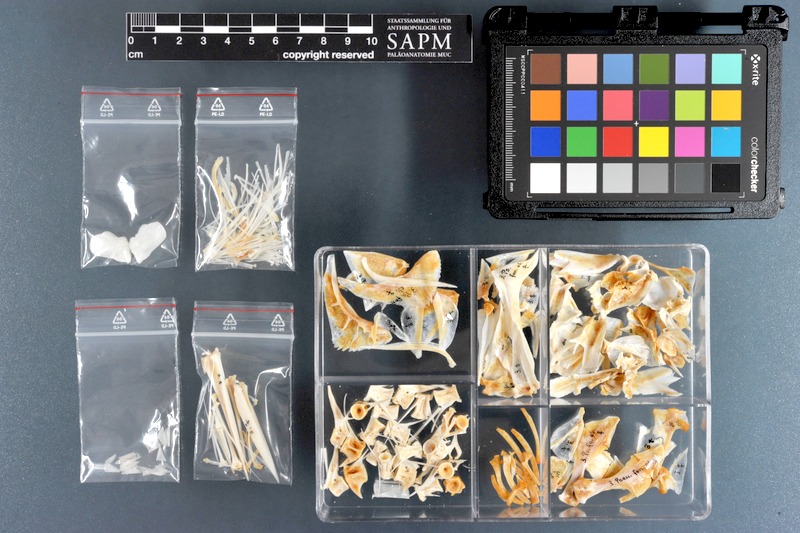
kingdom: Animalia
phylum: Chordata
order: Perciformes
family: Sciaenidae
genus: Pseudotolithus
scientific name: Pseudotolithus elongatus
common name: Bobo croaker
